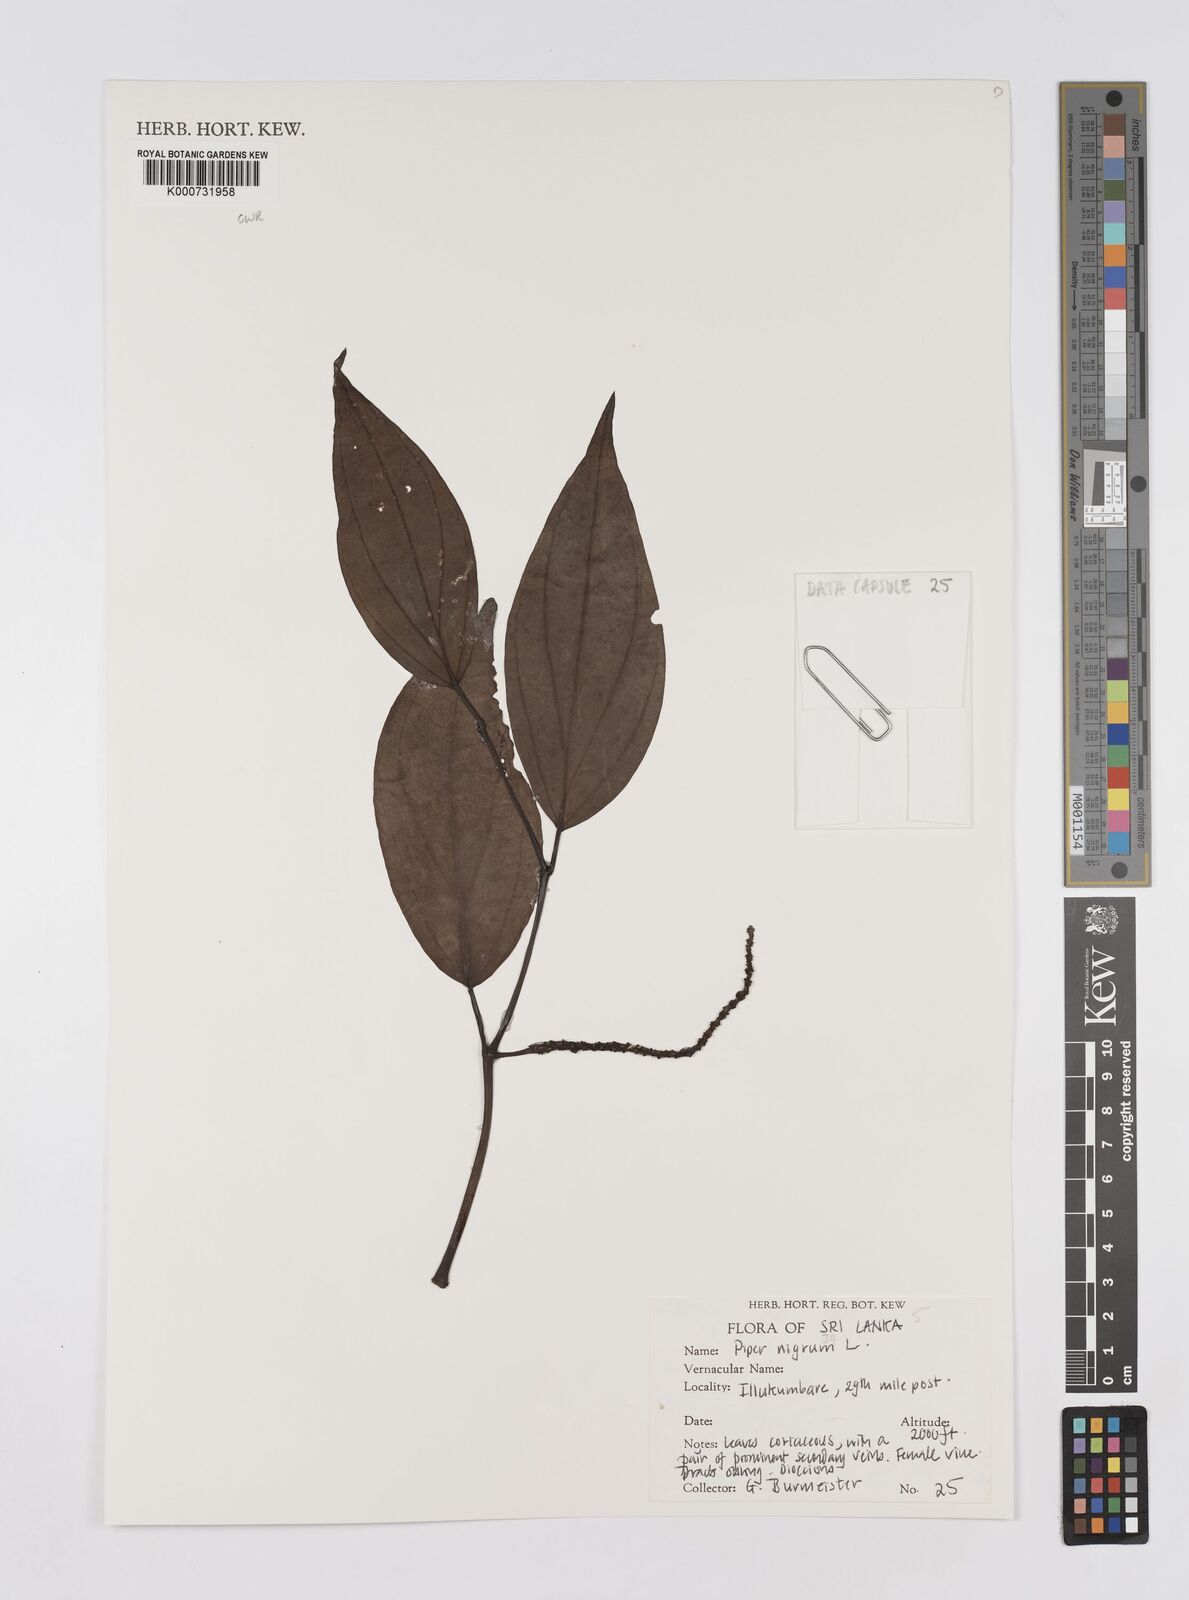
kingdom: Plantae
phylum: Tracheophyta
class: Magnoliopsida
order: Piperales
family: Piperaceae
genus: Piper
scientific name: Piper nigrum
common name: Black pepper
